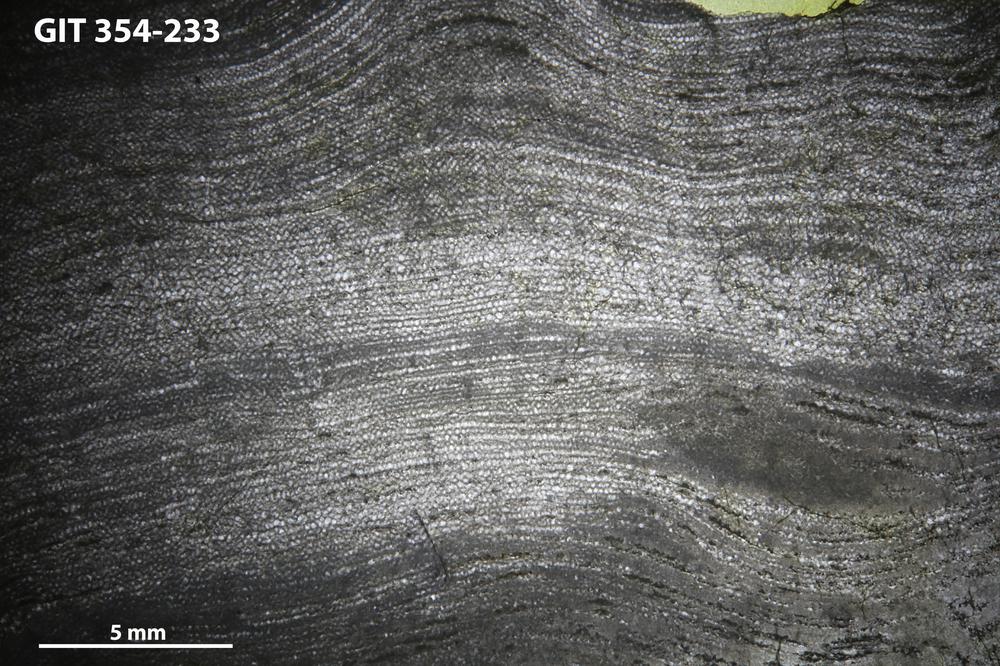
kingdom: Animalia
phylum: Porifera
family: Ecclimadictyidae
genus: Ecclimadictyon
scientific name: Ecclimadictyon Clathrodictyon microvesiculosum
